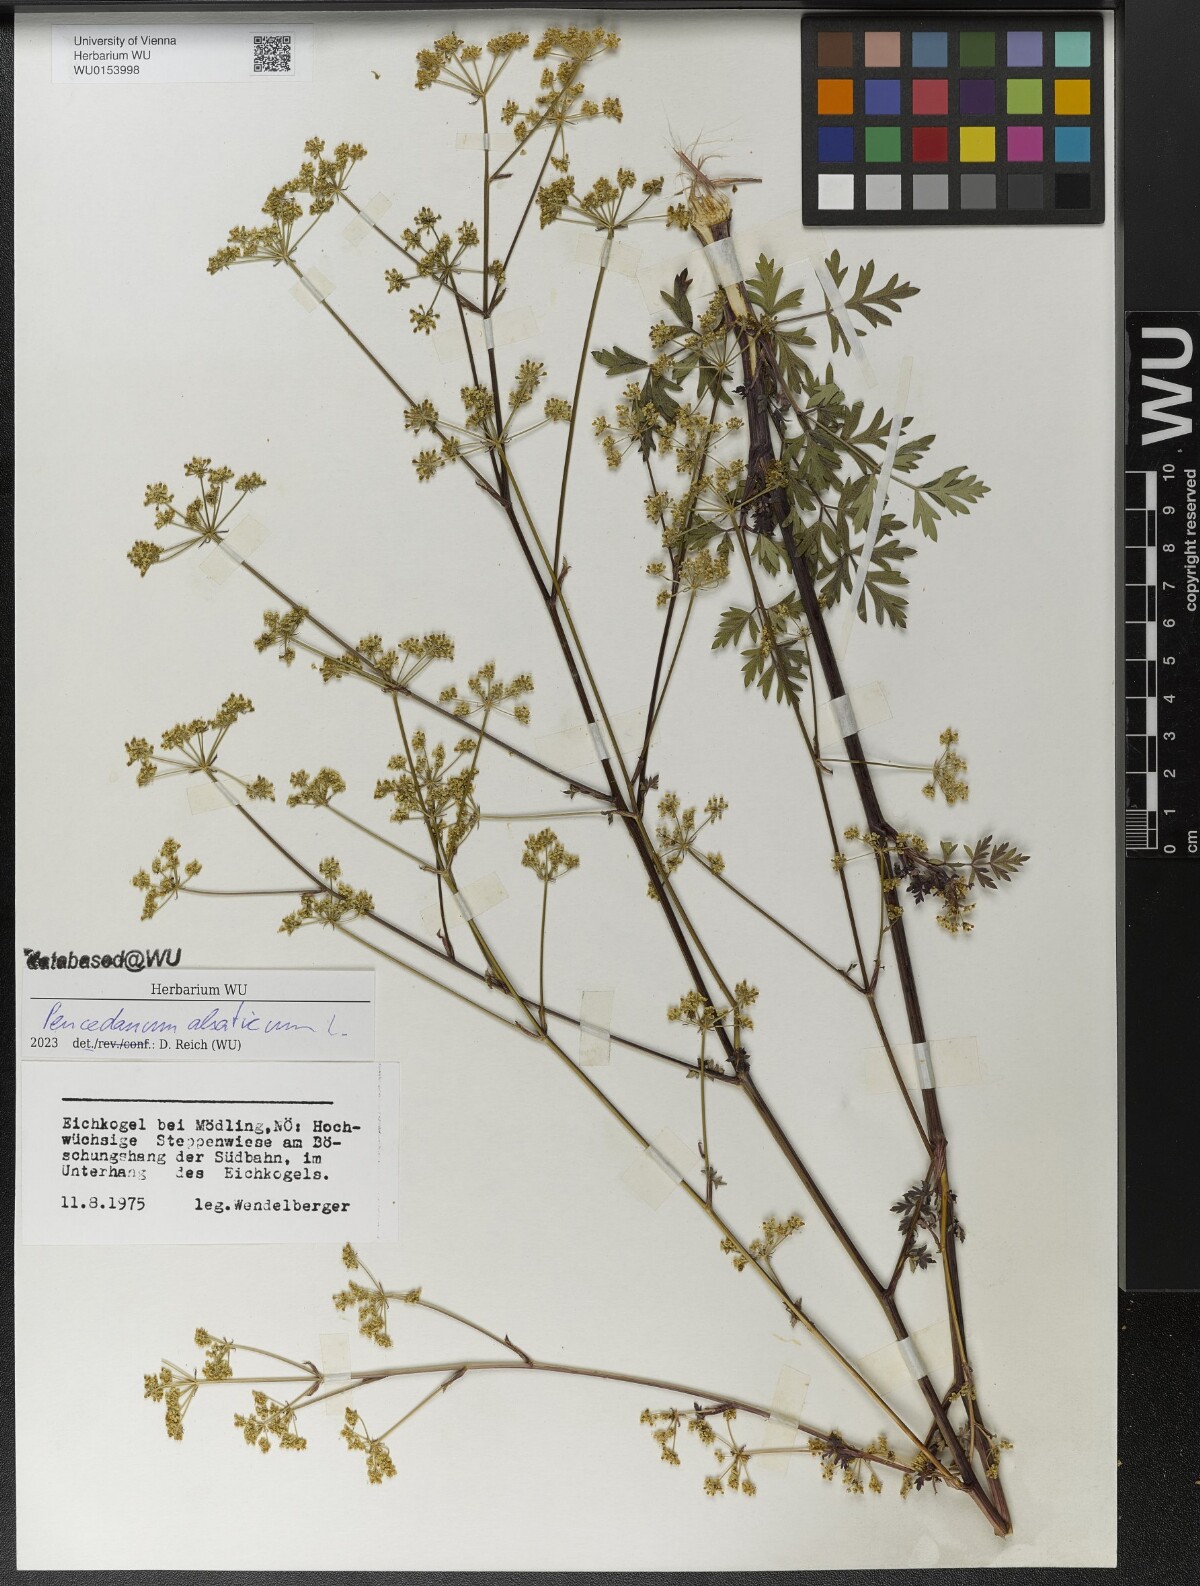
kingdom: Plantae
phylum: Tracheophyta
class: Magnoliopsida
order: Apiales
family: Apiaceae
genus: Xanthoselinum
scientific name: Xanthoselinum alsaticum
